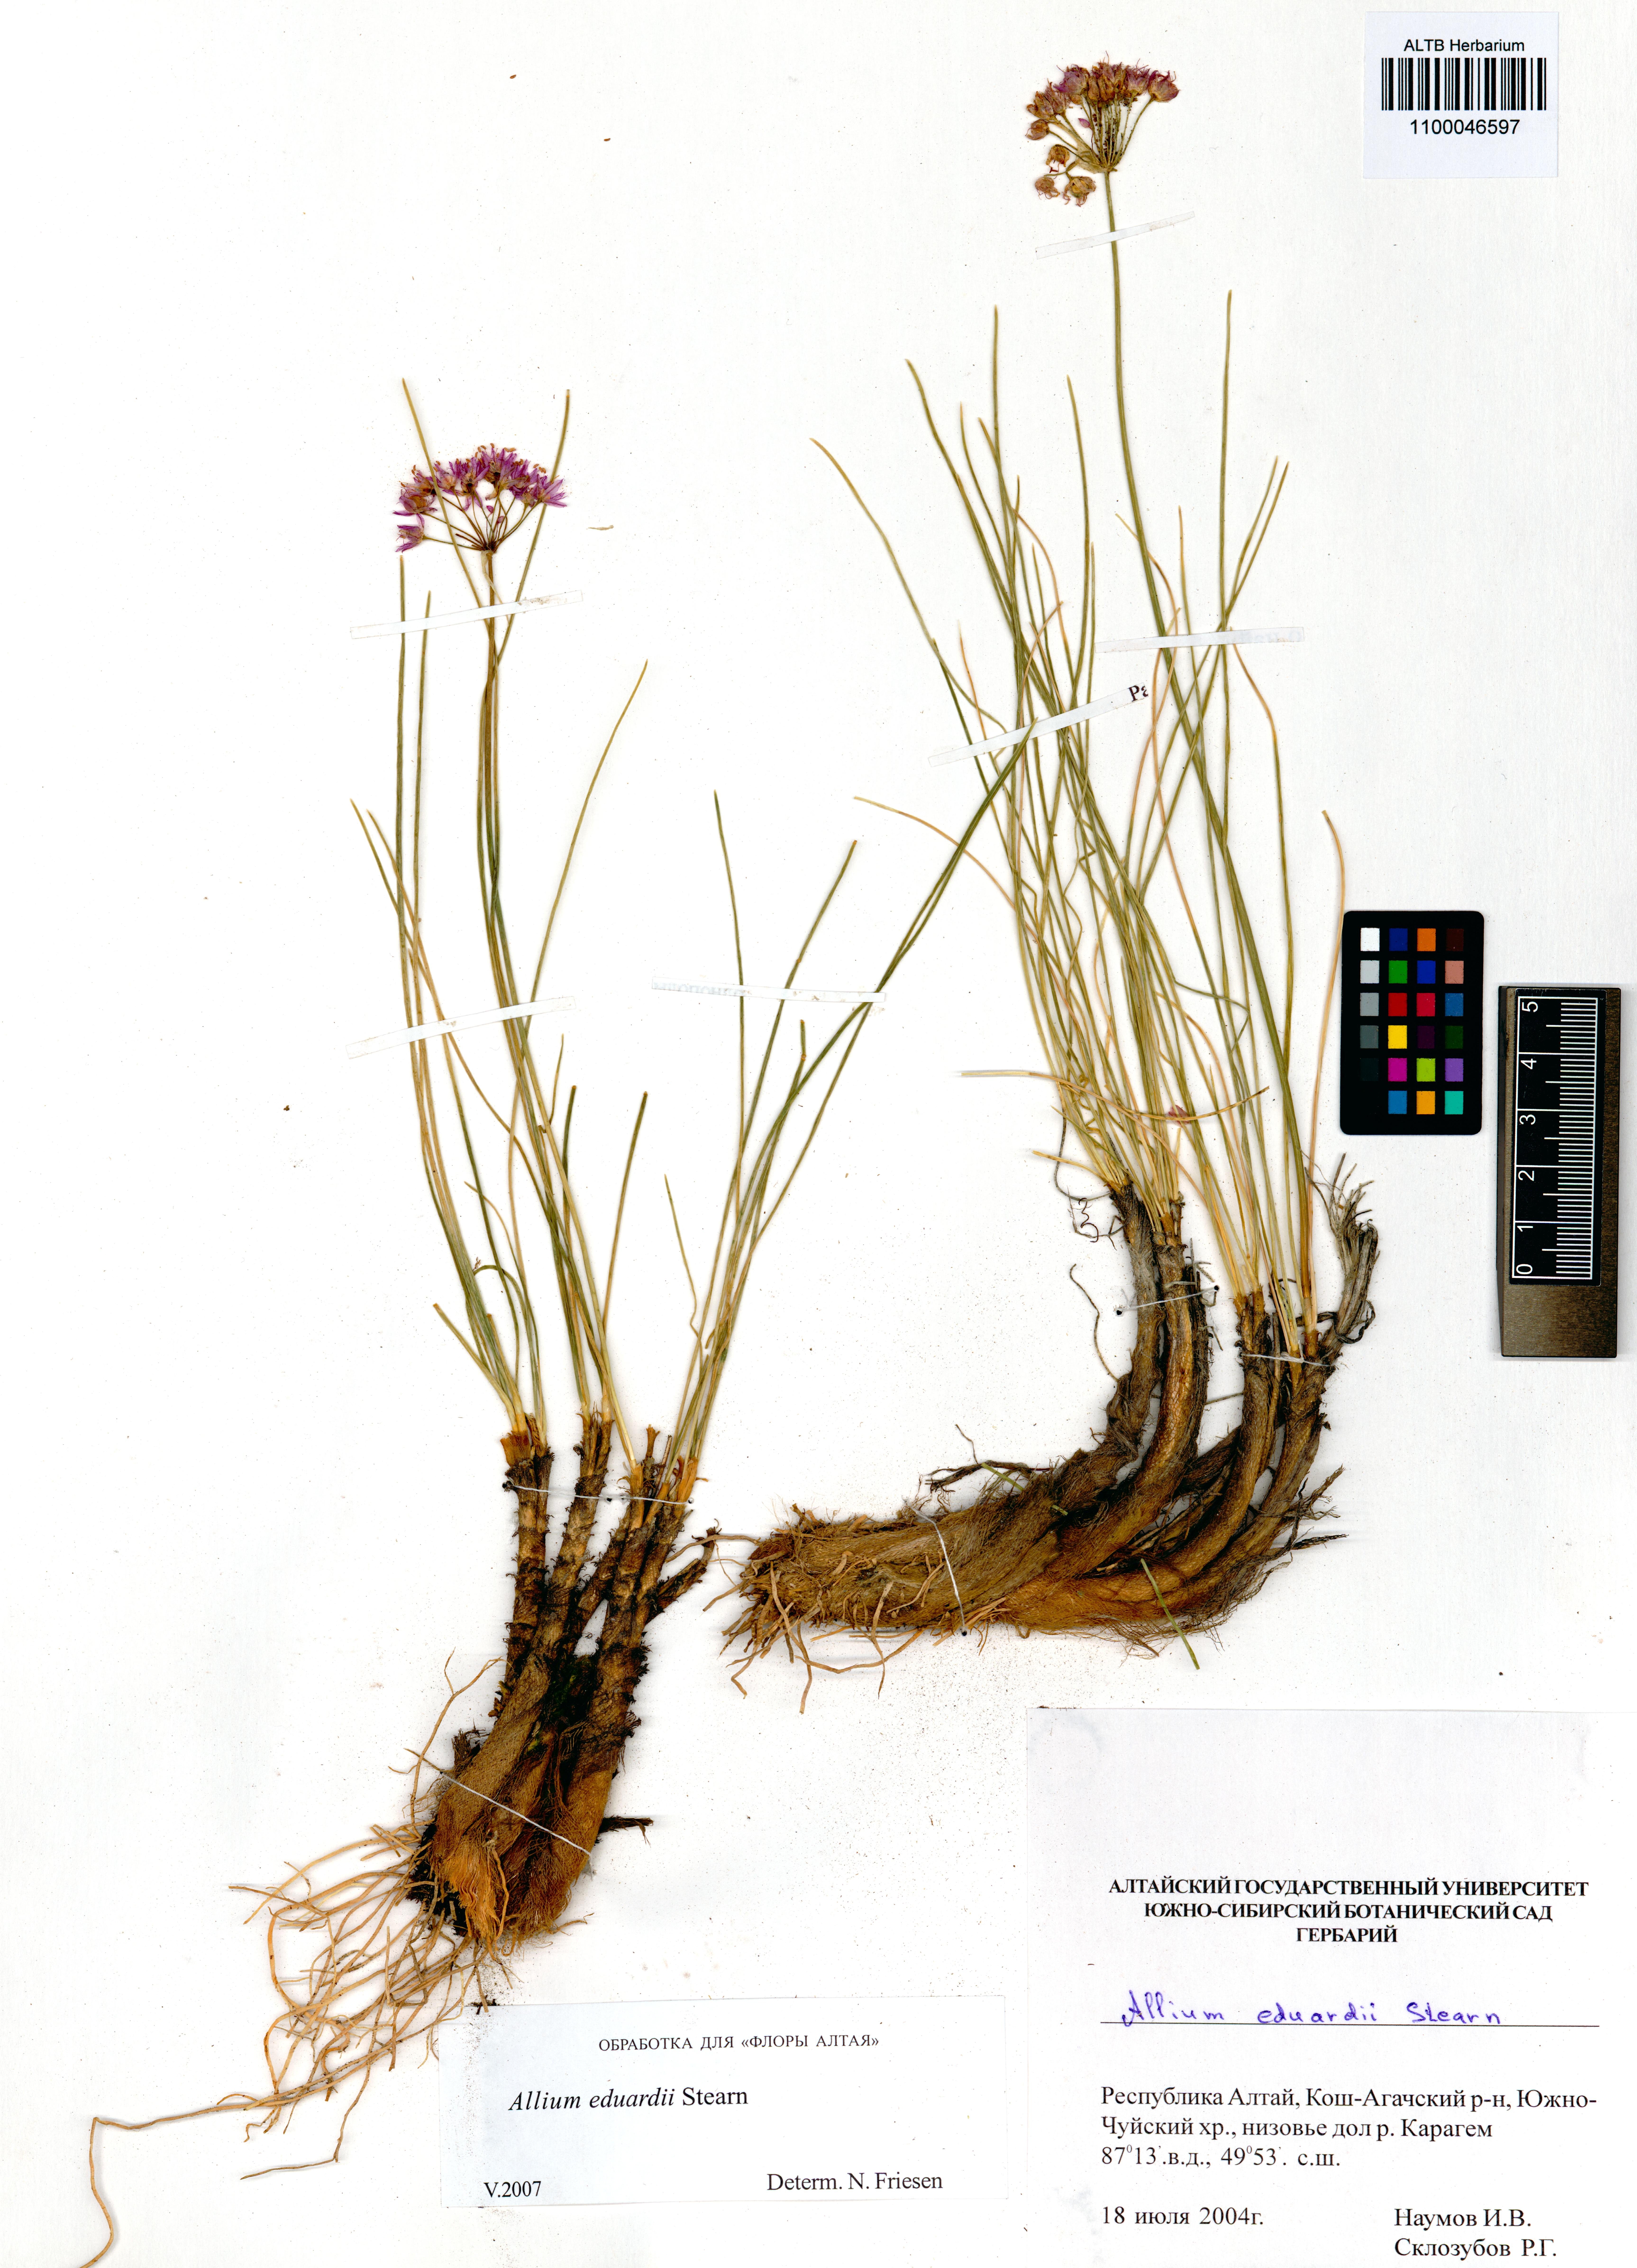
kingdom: Plantae
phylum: Tracheophyta
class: Liliopsida
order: Asparagales
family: Amaryllidaceae
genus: Allium
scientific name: Allium eduardi
